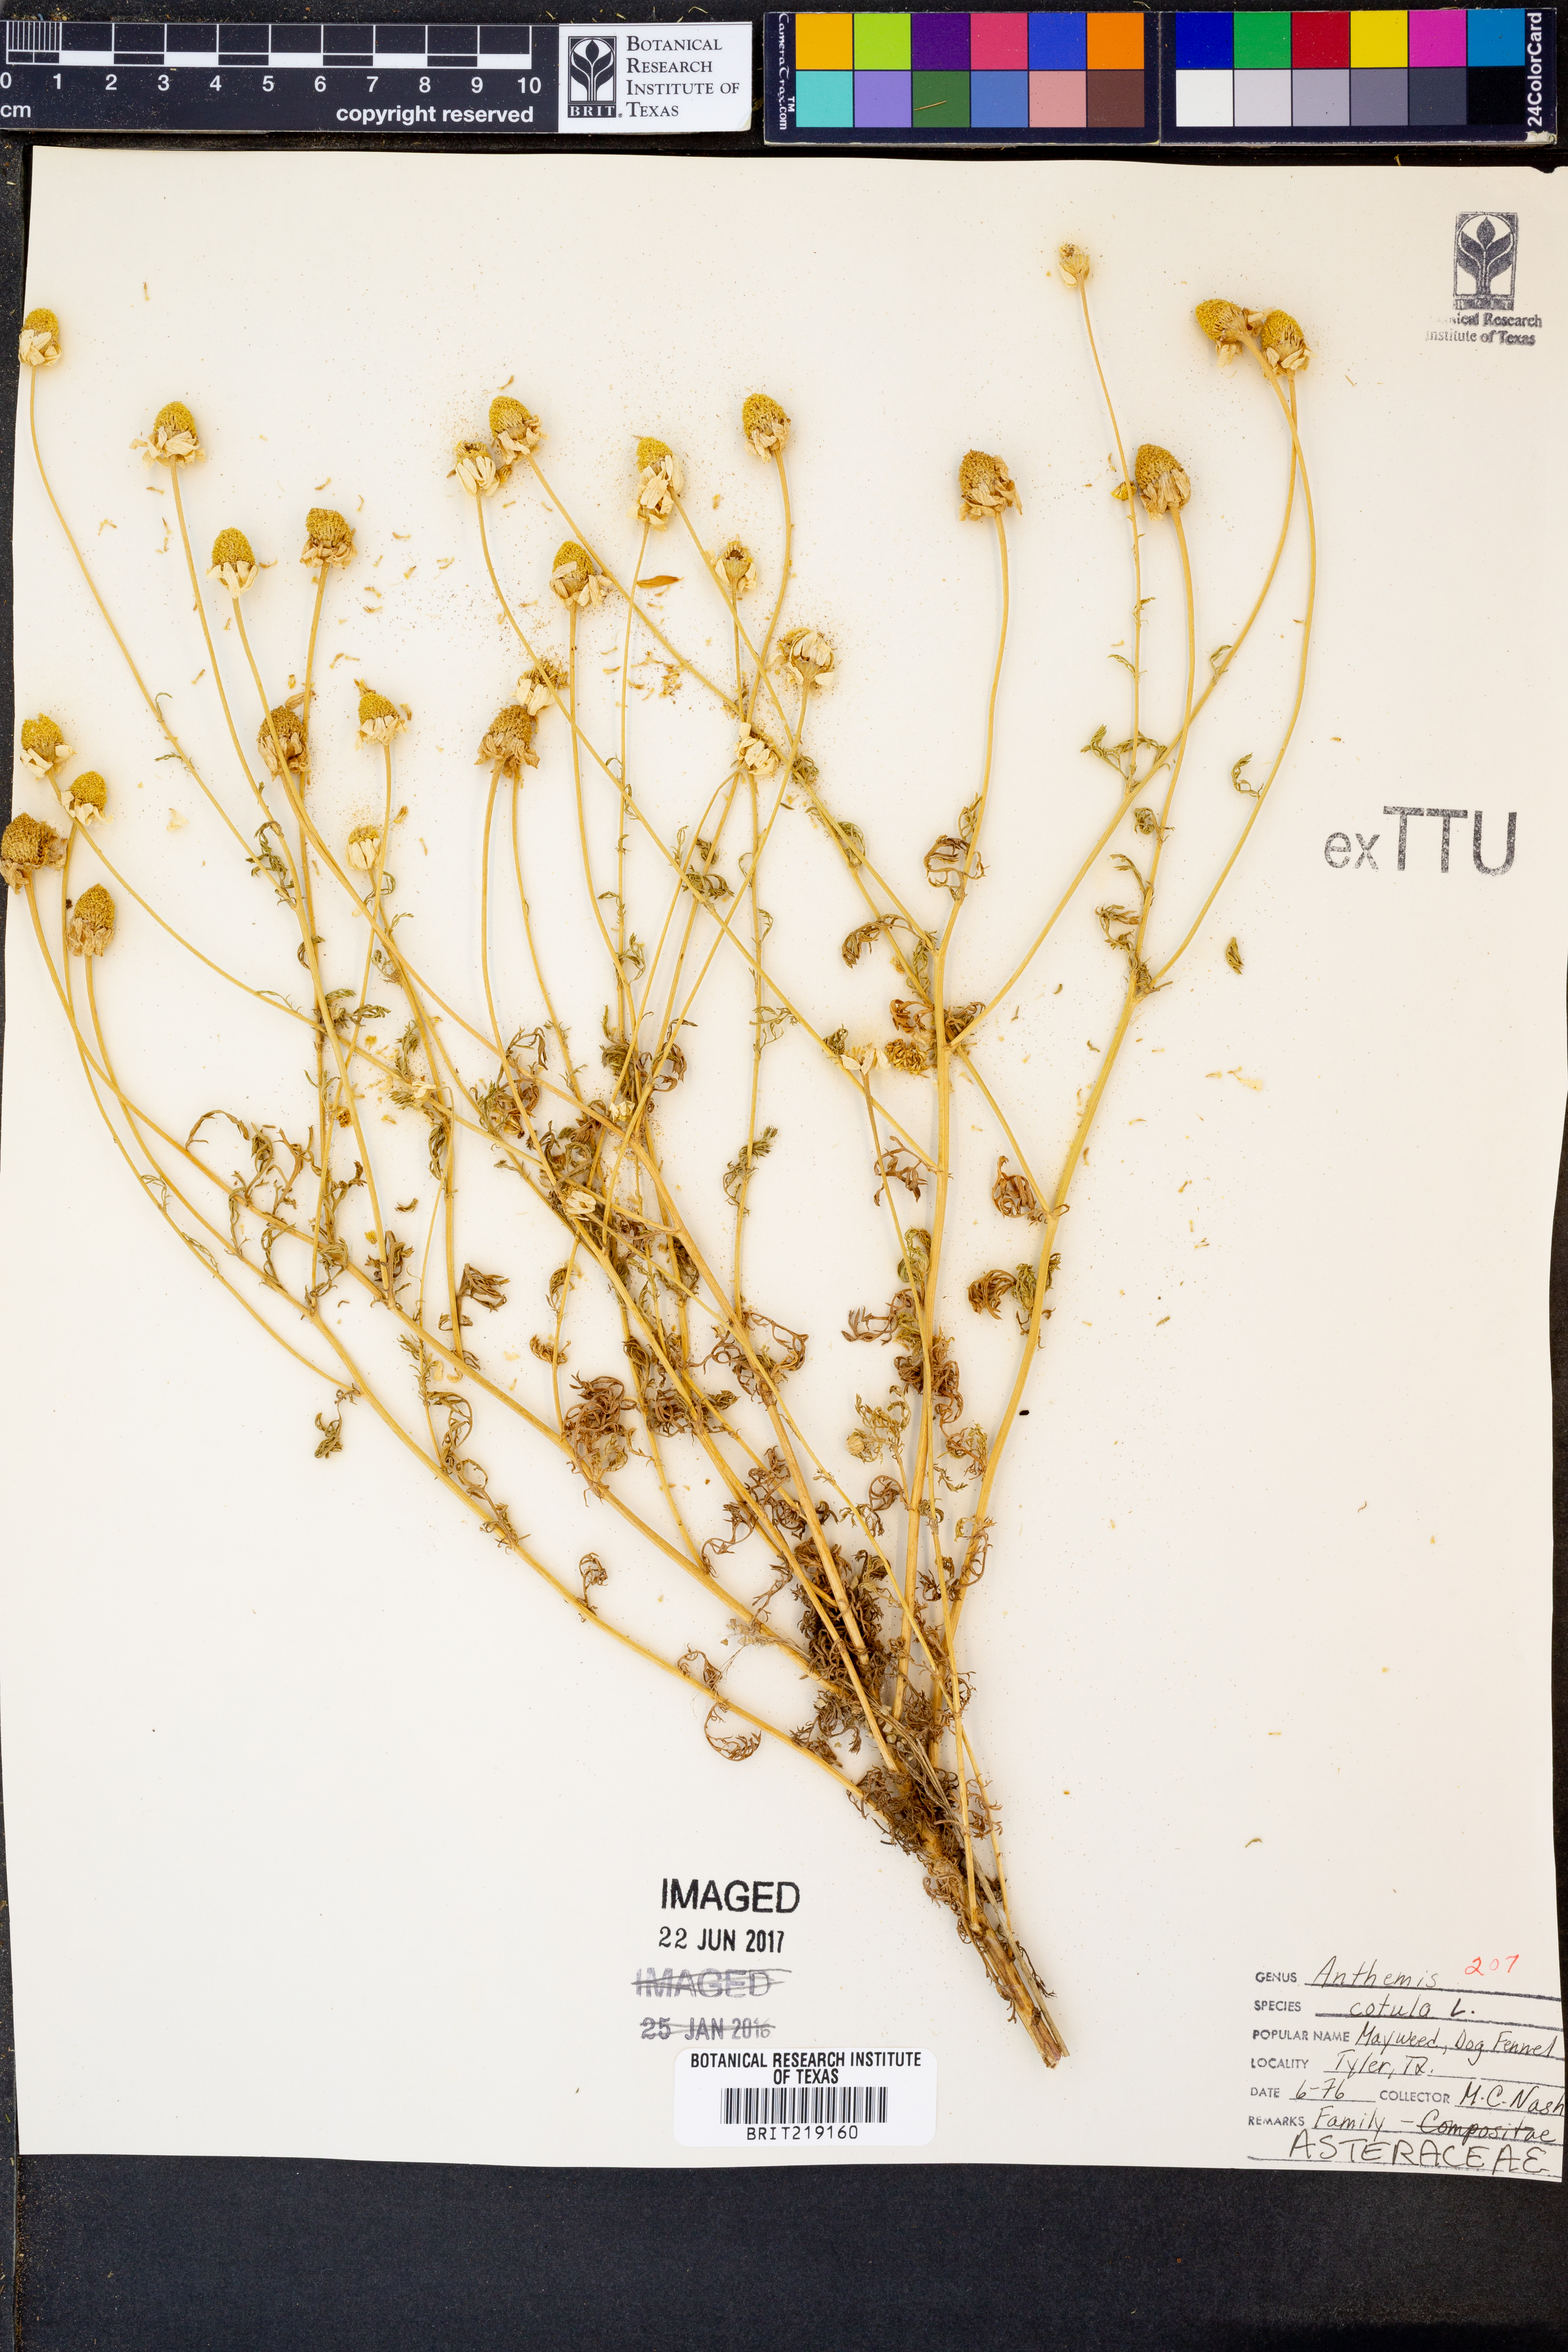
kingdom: Plantae
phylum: Tracheophyta
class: Magnoliopsida
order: Asterales
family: Asteraceae
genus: Anthemis
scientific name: Anthemis cotula
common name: Stinking chamomile
